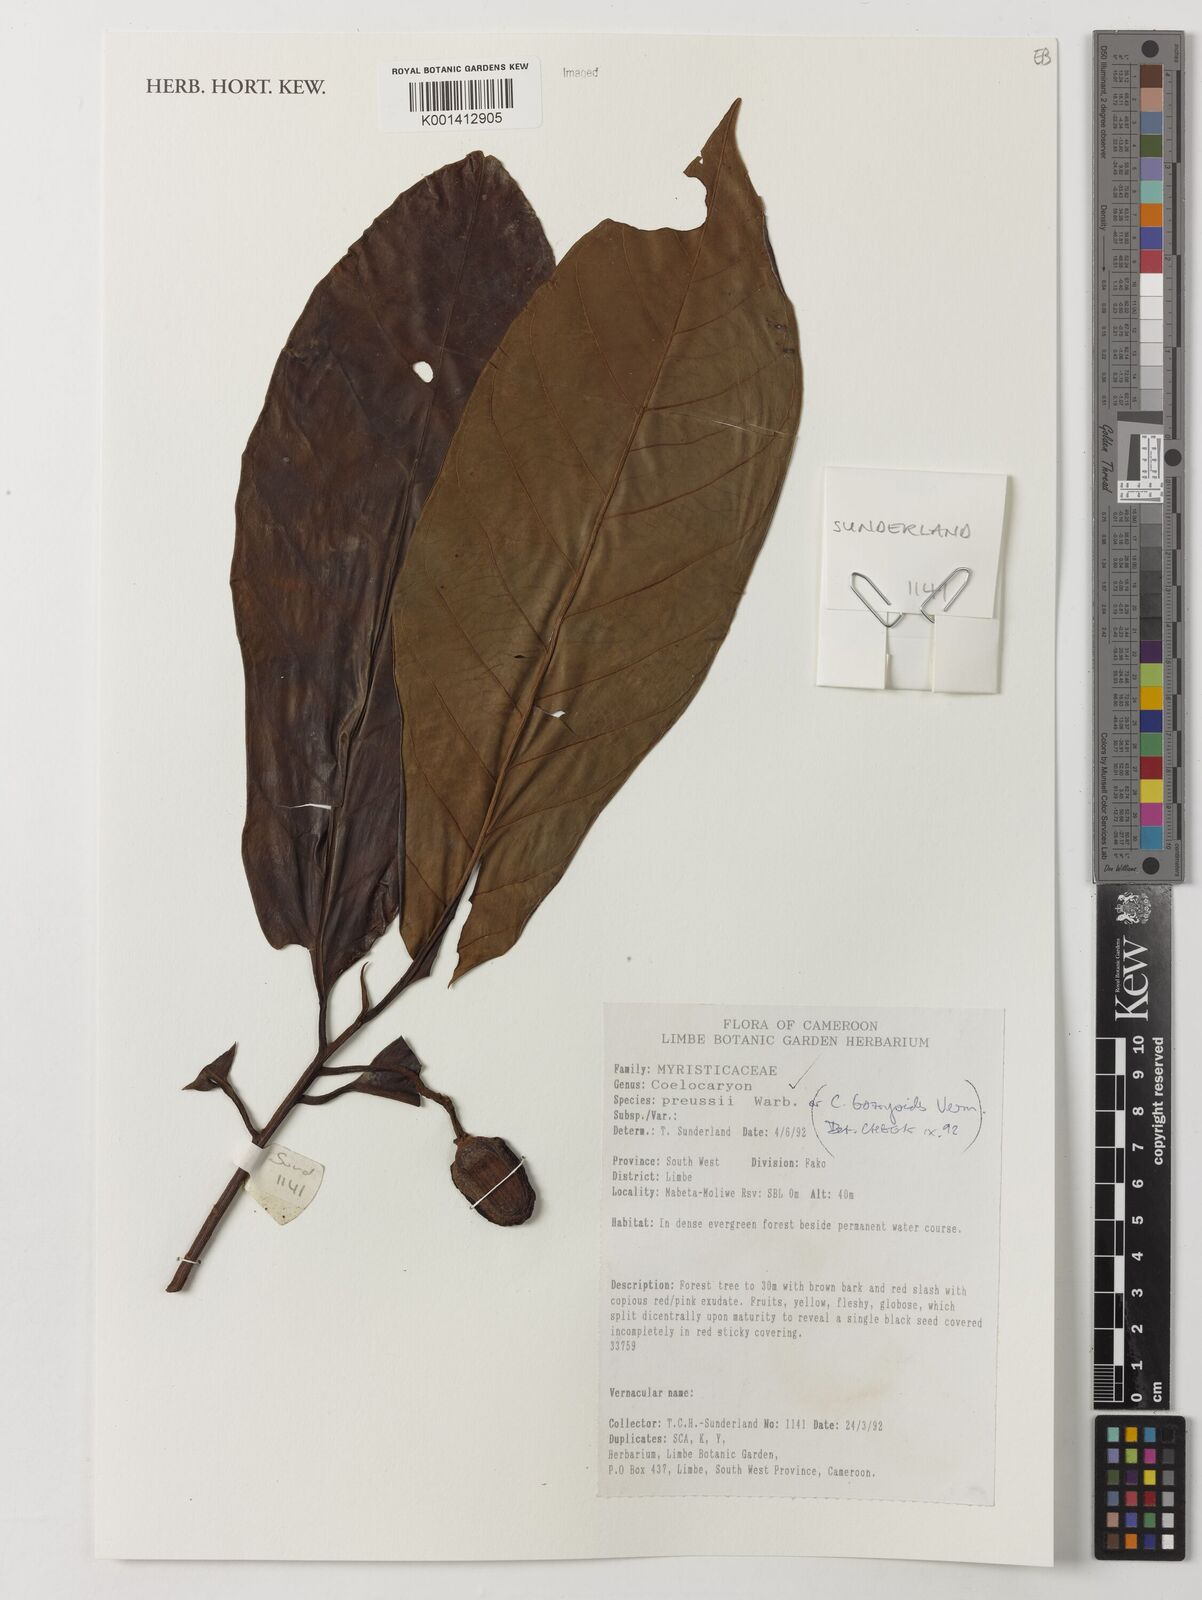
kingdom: Plantae
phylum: Tracheophyta
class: Magnoliopsida
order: Magnoliales
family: Myristicaceae
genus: Coelocaryon
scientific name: Coelocaryon preussii
